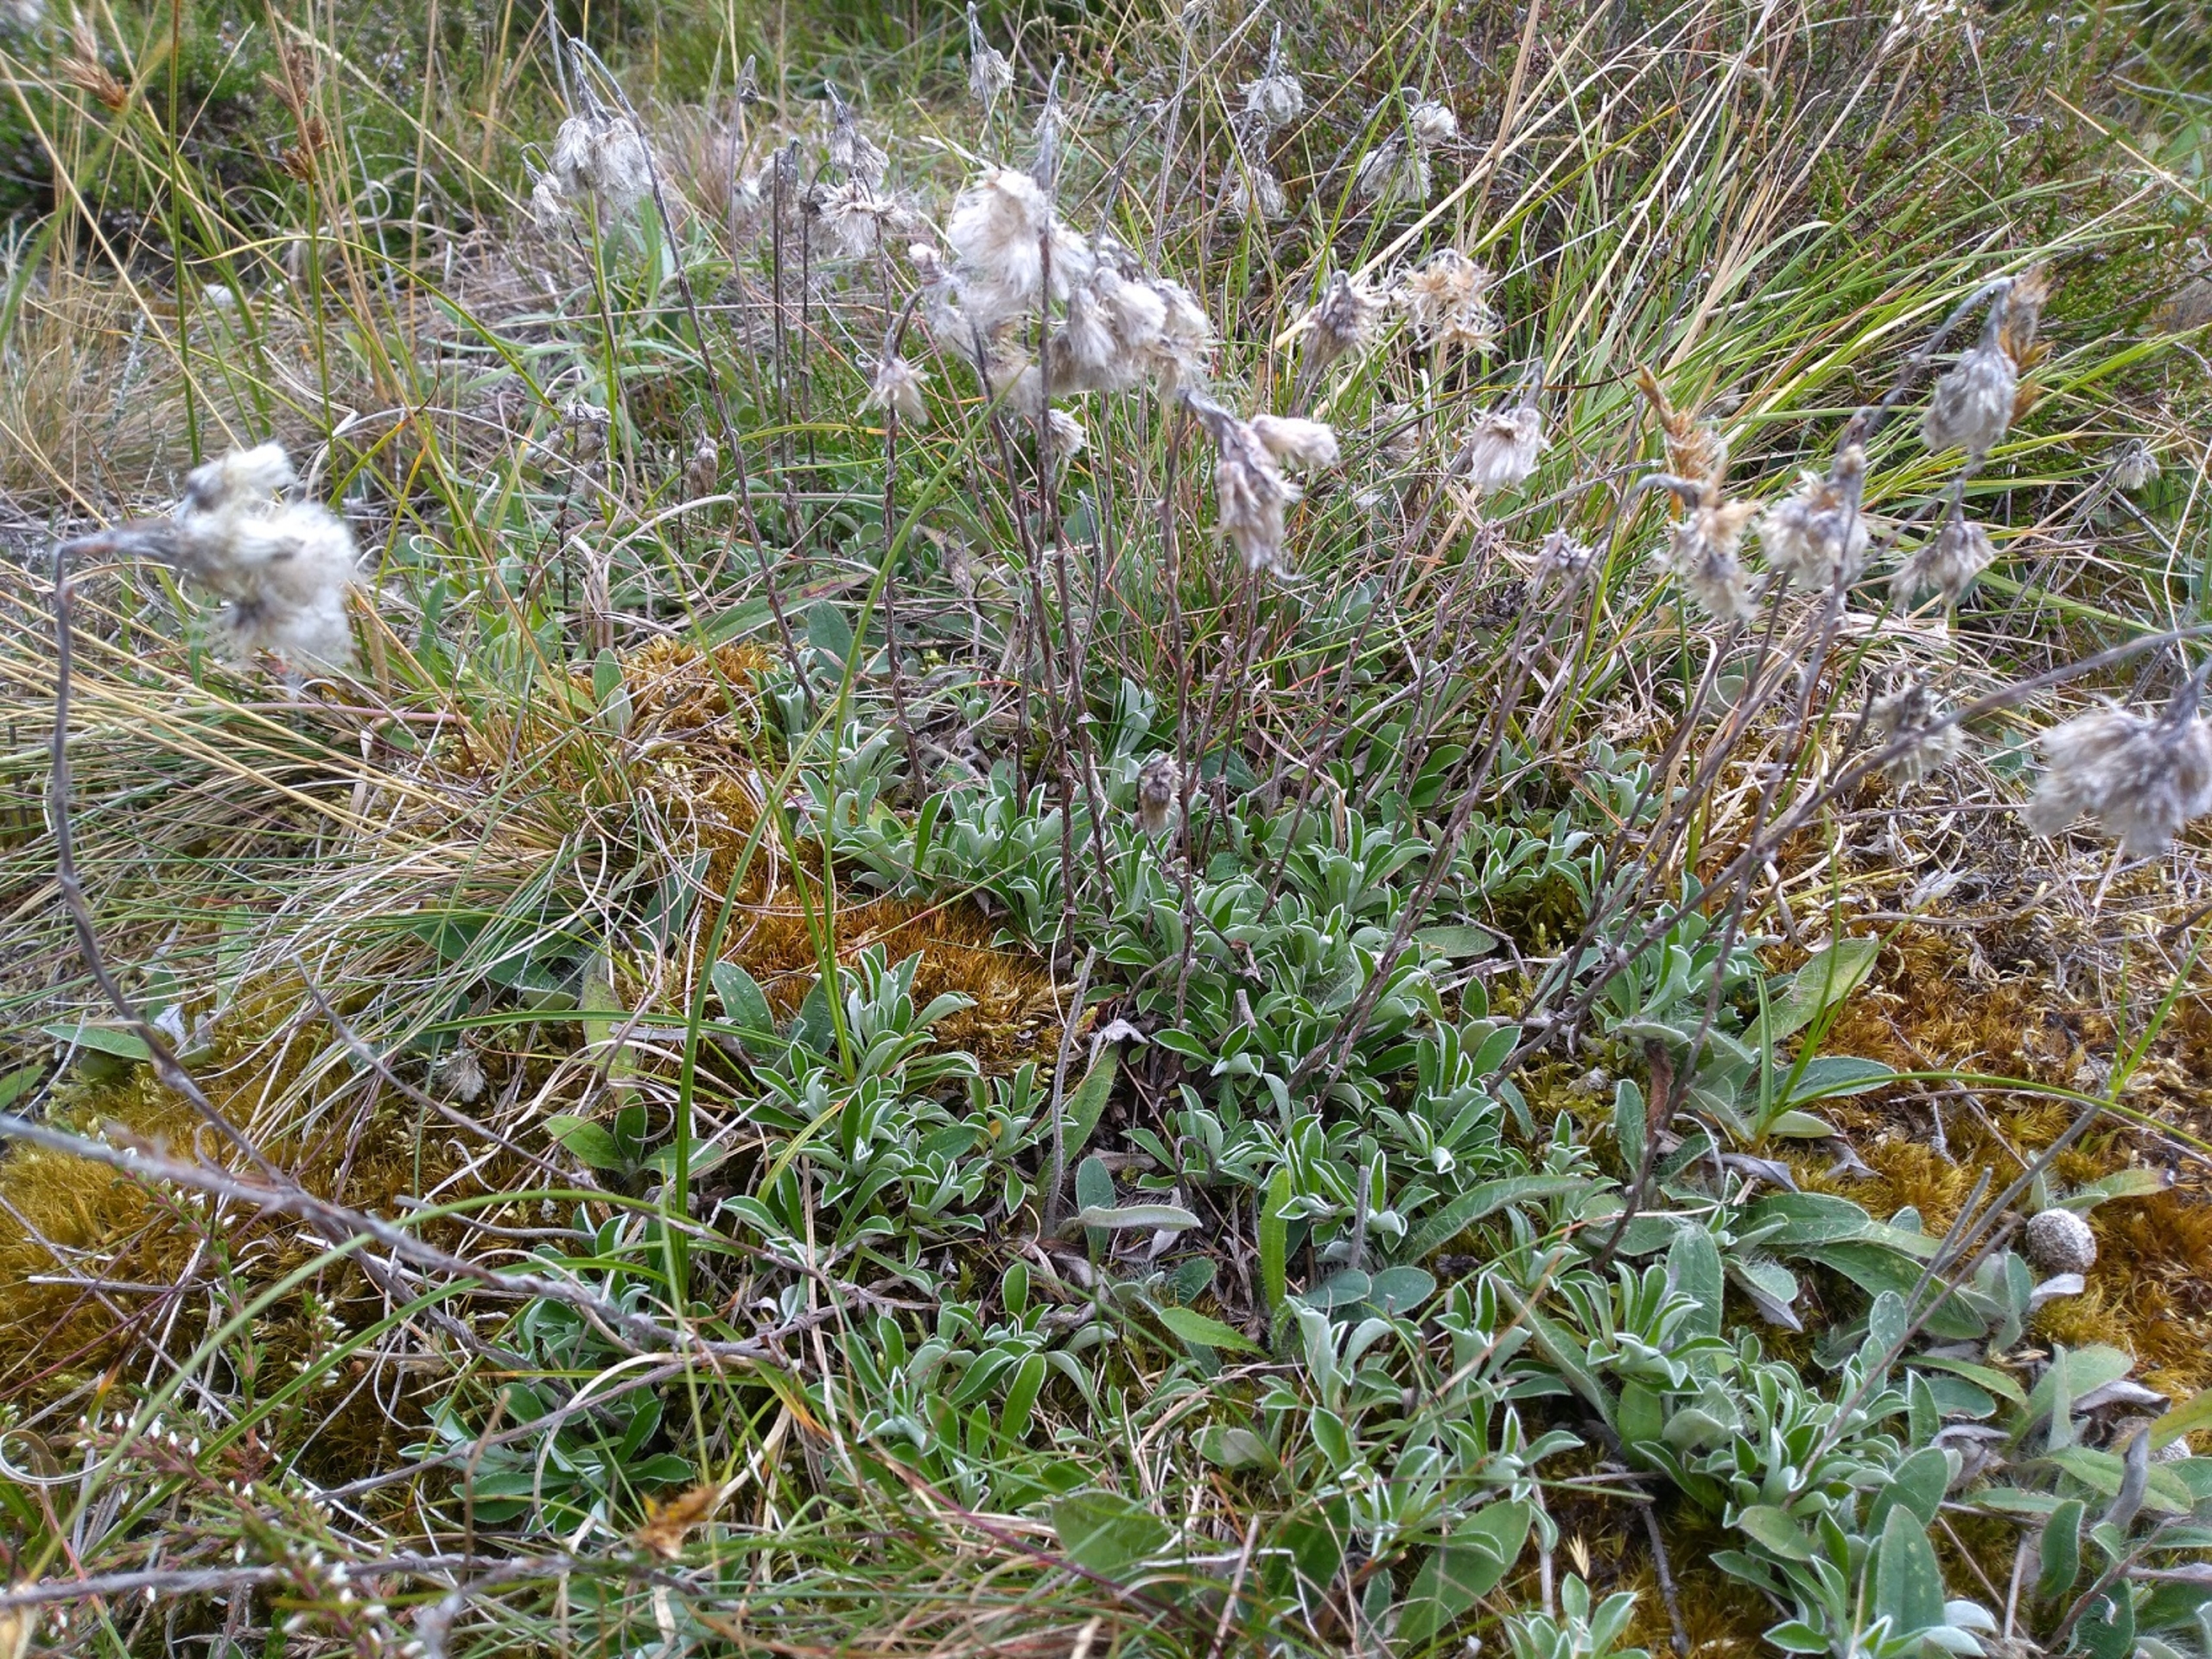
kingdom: Plantae
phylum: Tracheophyta
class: Magnoliopsida
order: Asterales
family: Asteraceae
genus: Antennaria
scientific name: Antennaria dioica
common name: Kattefod
